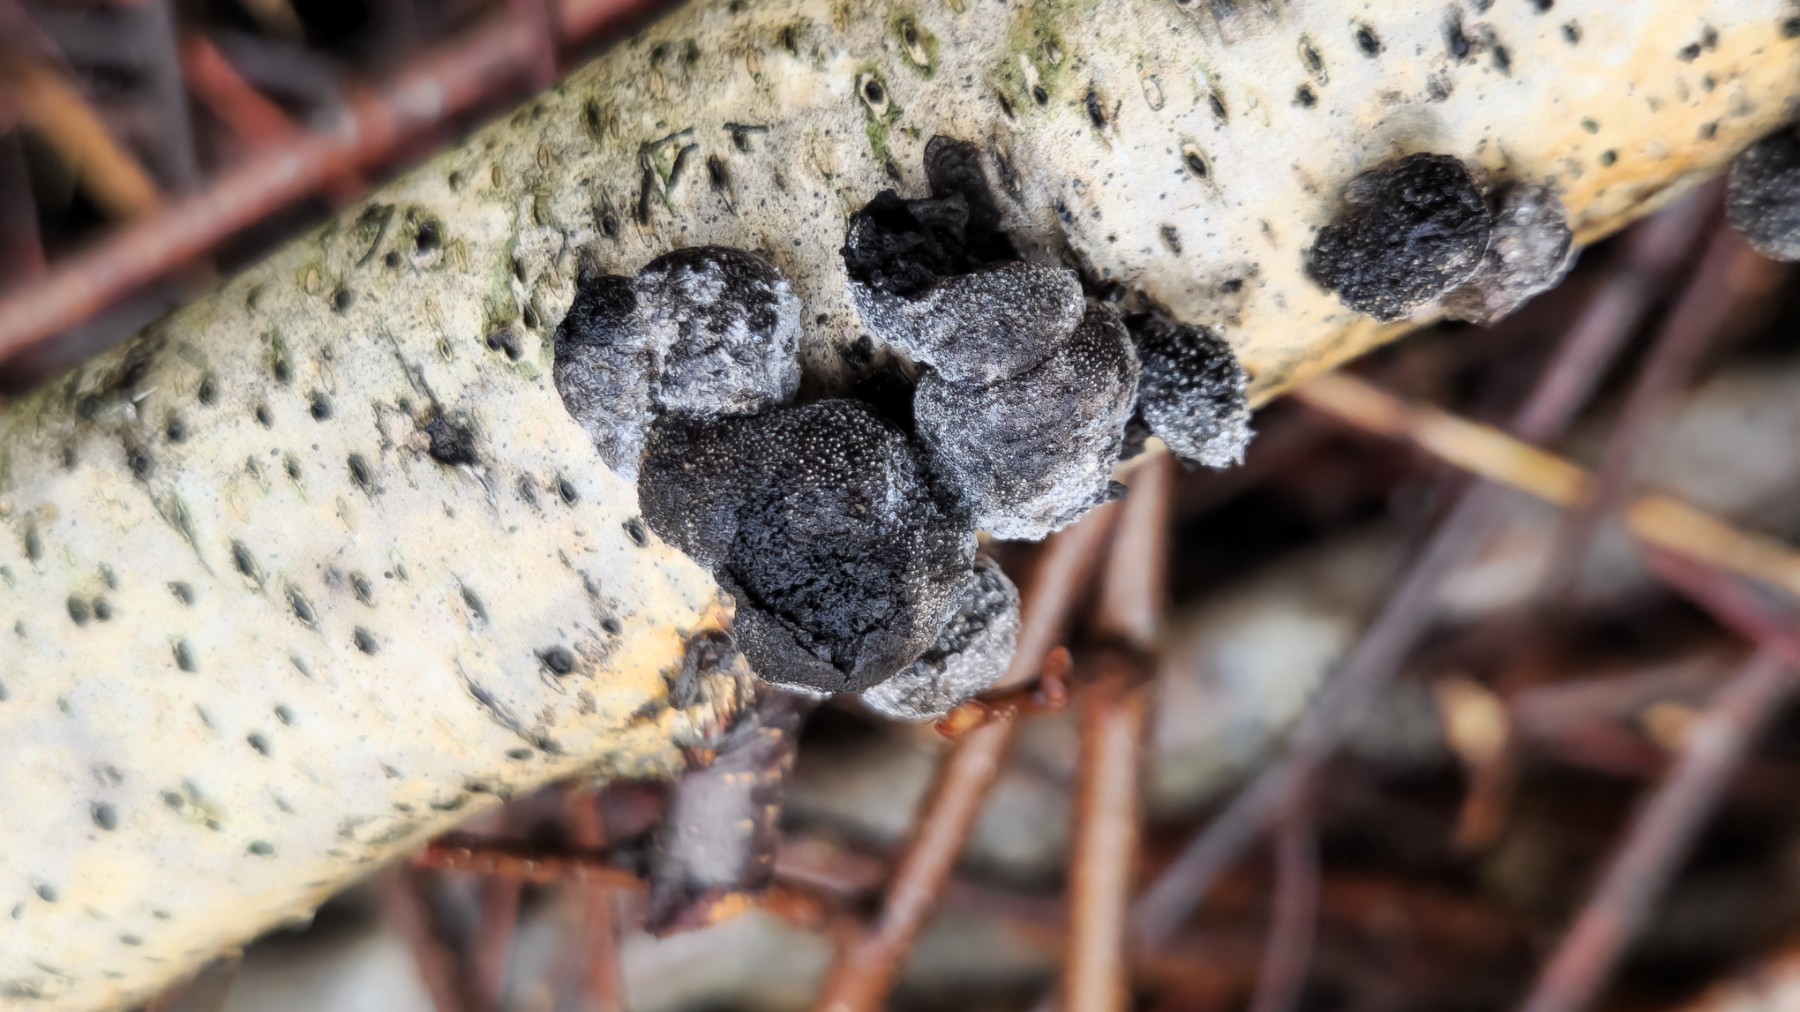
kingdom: Fungi
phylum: Ascomycota
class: Sordariomycetes
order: Xylariales
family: Hypoxylaceae
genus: Daldinia
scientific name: Daldinia decipiens
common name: stilket bæltekugle
